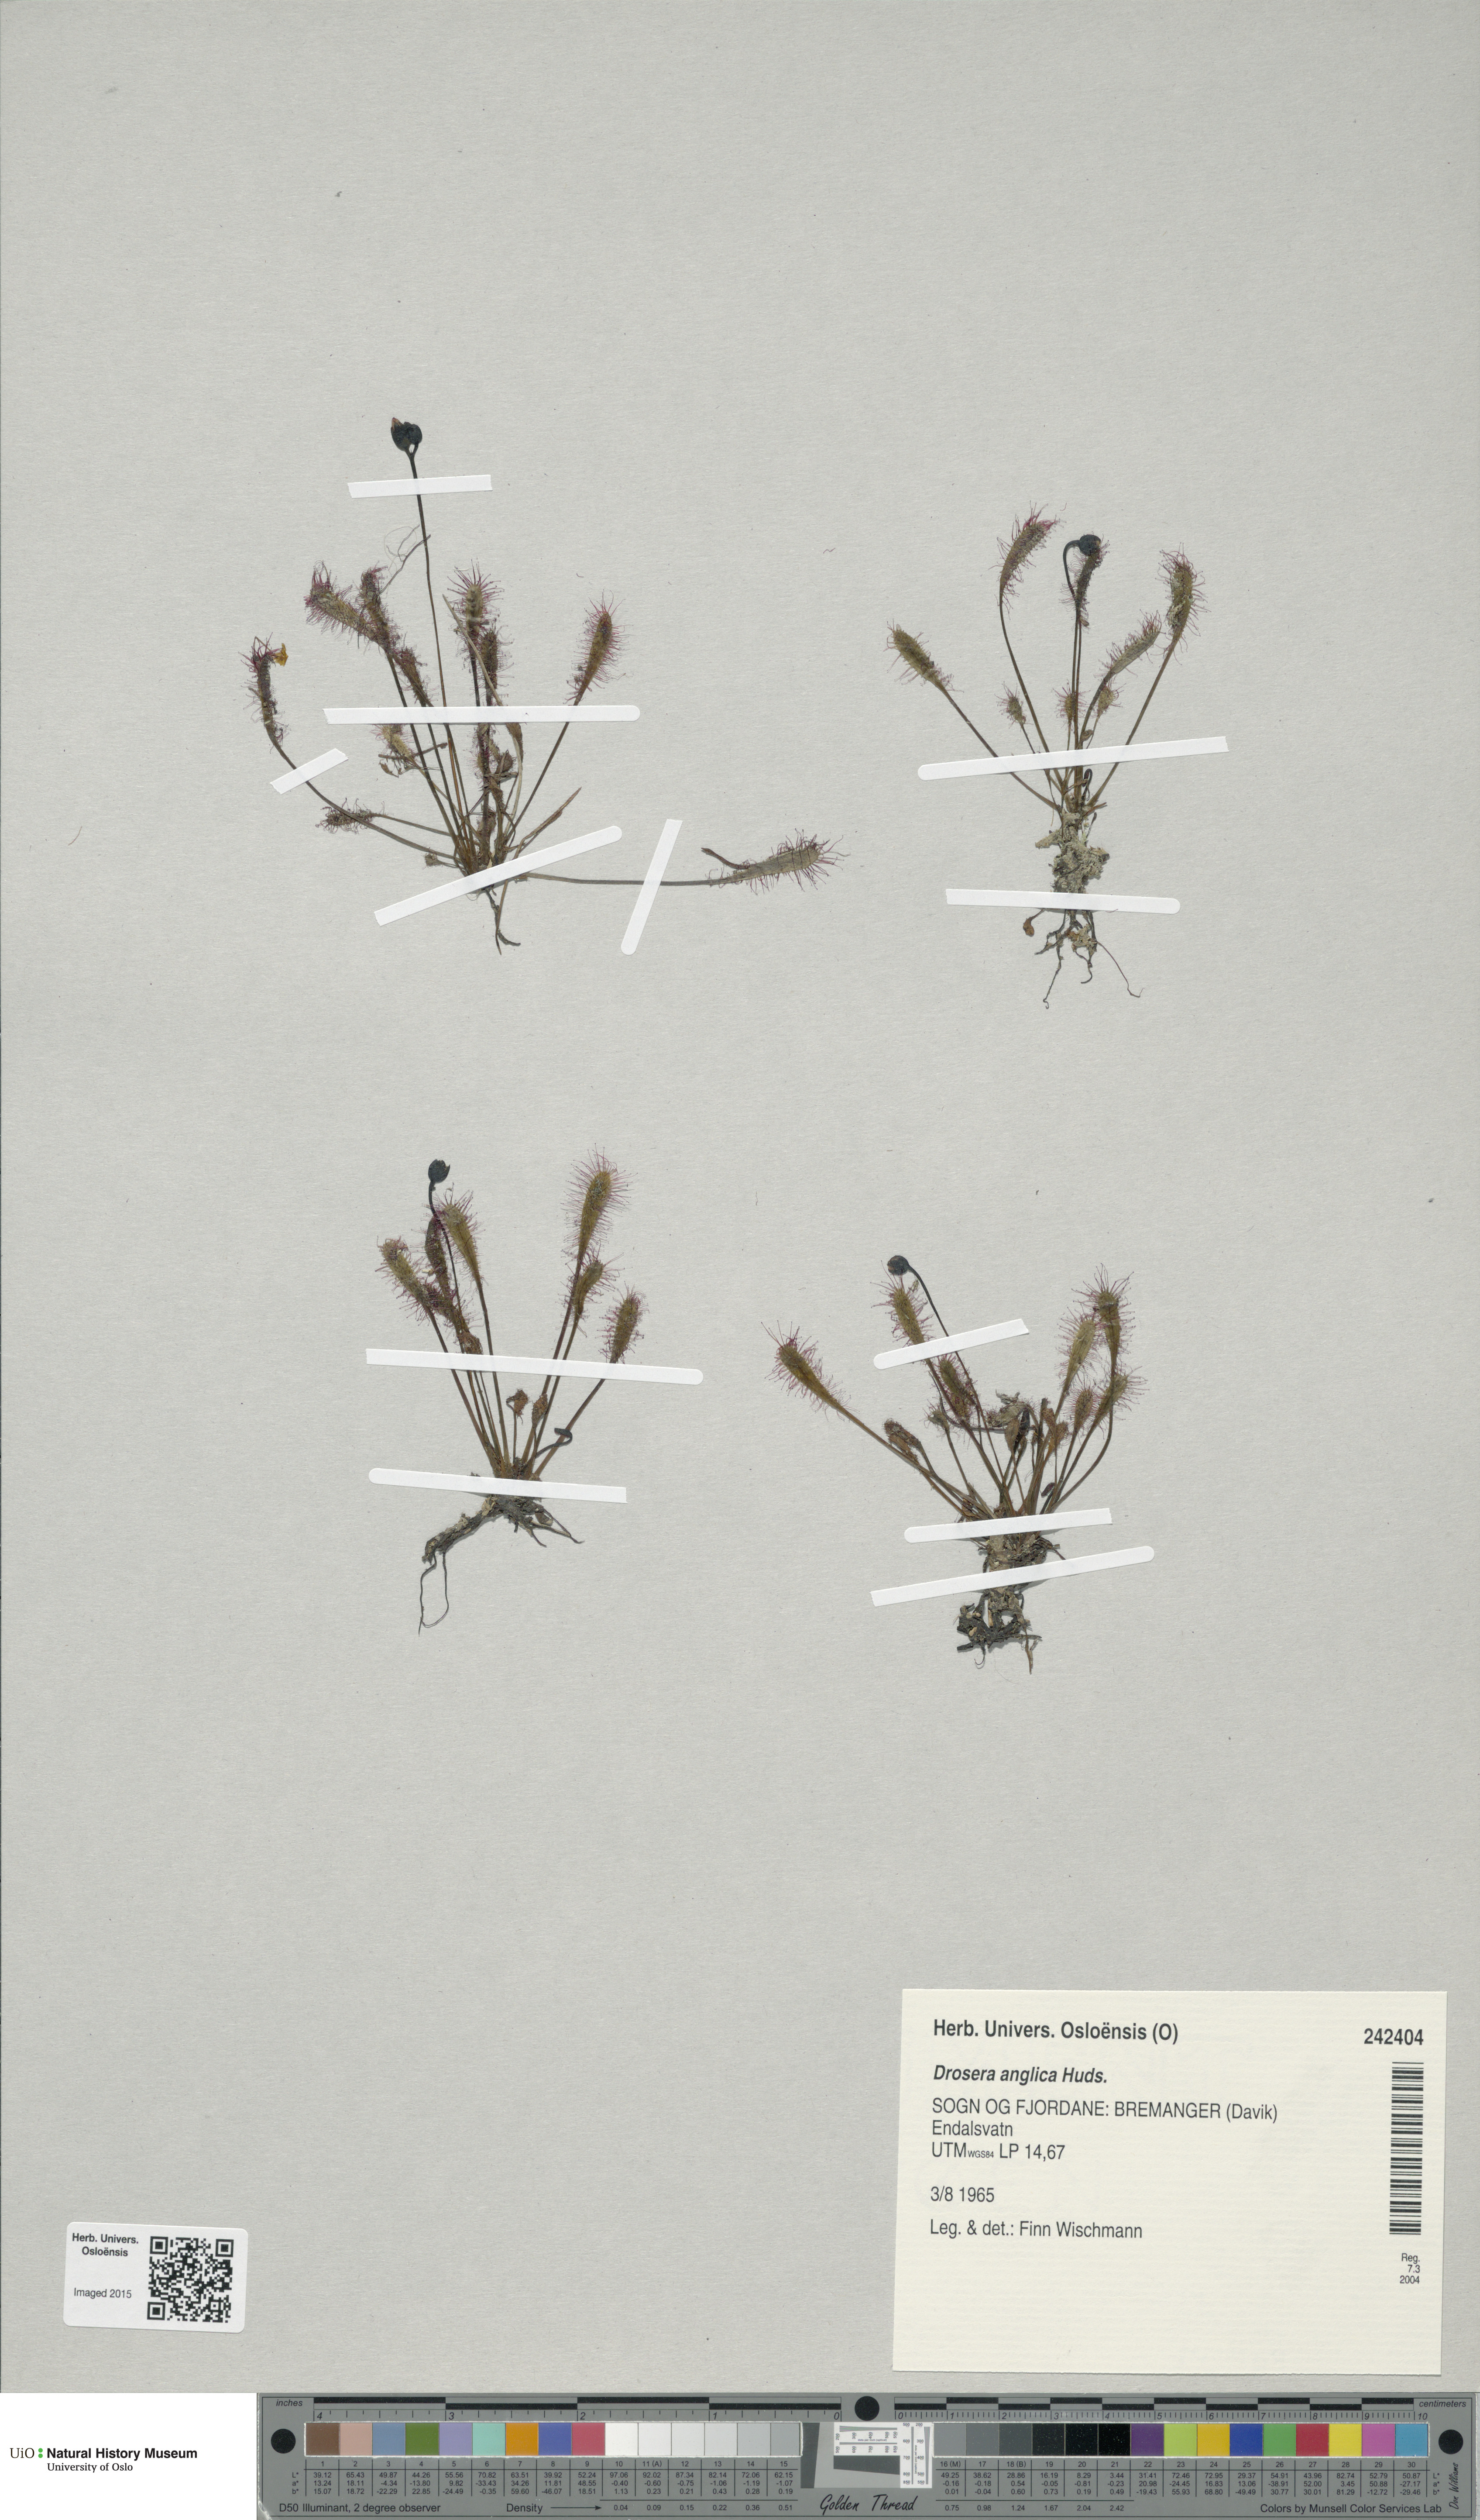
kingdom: Plantae
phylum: Tracheophyta
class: Magnoliopsida
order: Caryophyllales
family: Droseraceae
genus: Drosera
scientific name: Drosera anglica
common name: Great sundew
